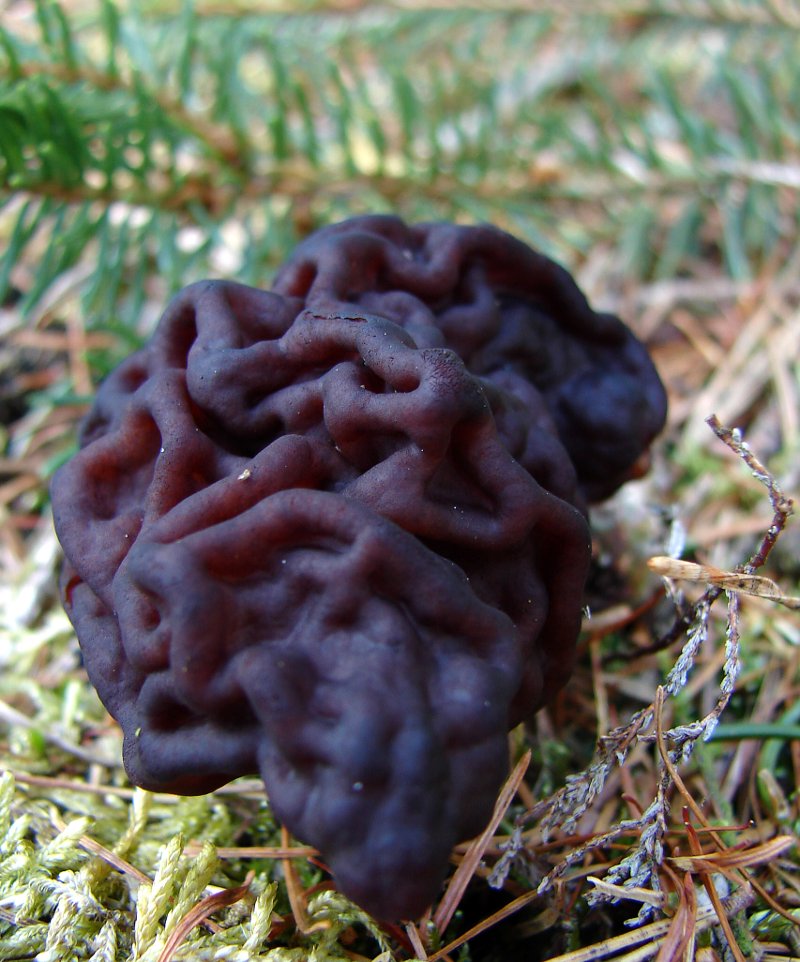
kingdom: Fungi
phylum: Ascomycota
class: Pezizomycetes
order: Pezizales
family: Discinaceae
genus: Gyromitra
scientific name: Gyromitra esculenta
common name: ægte stenmorkel
